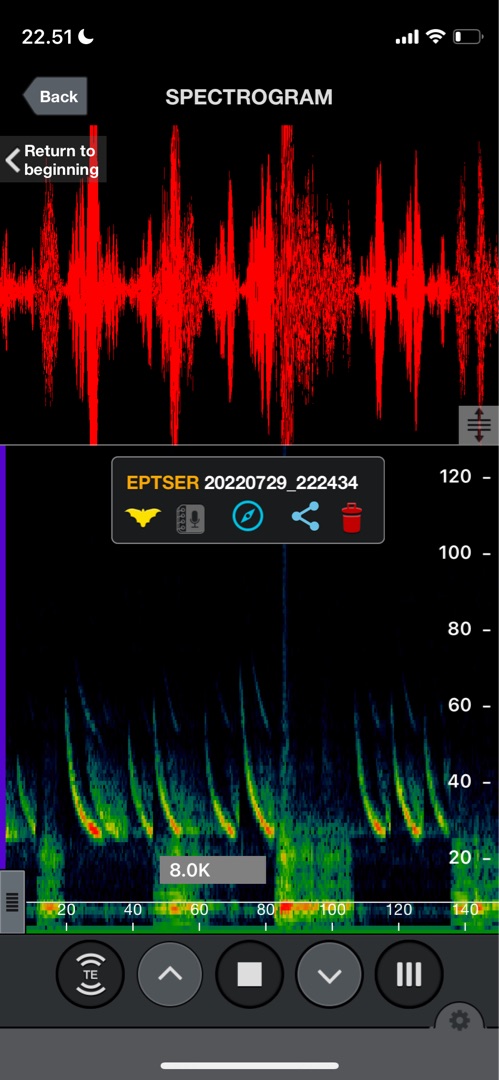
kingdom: Animalia
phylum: Chordata
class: Mammalia
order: Chiroptera
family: Vespertilionidae
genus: Eptesicus
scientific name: Eptesicus serotinus
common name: Sydflagermus
